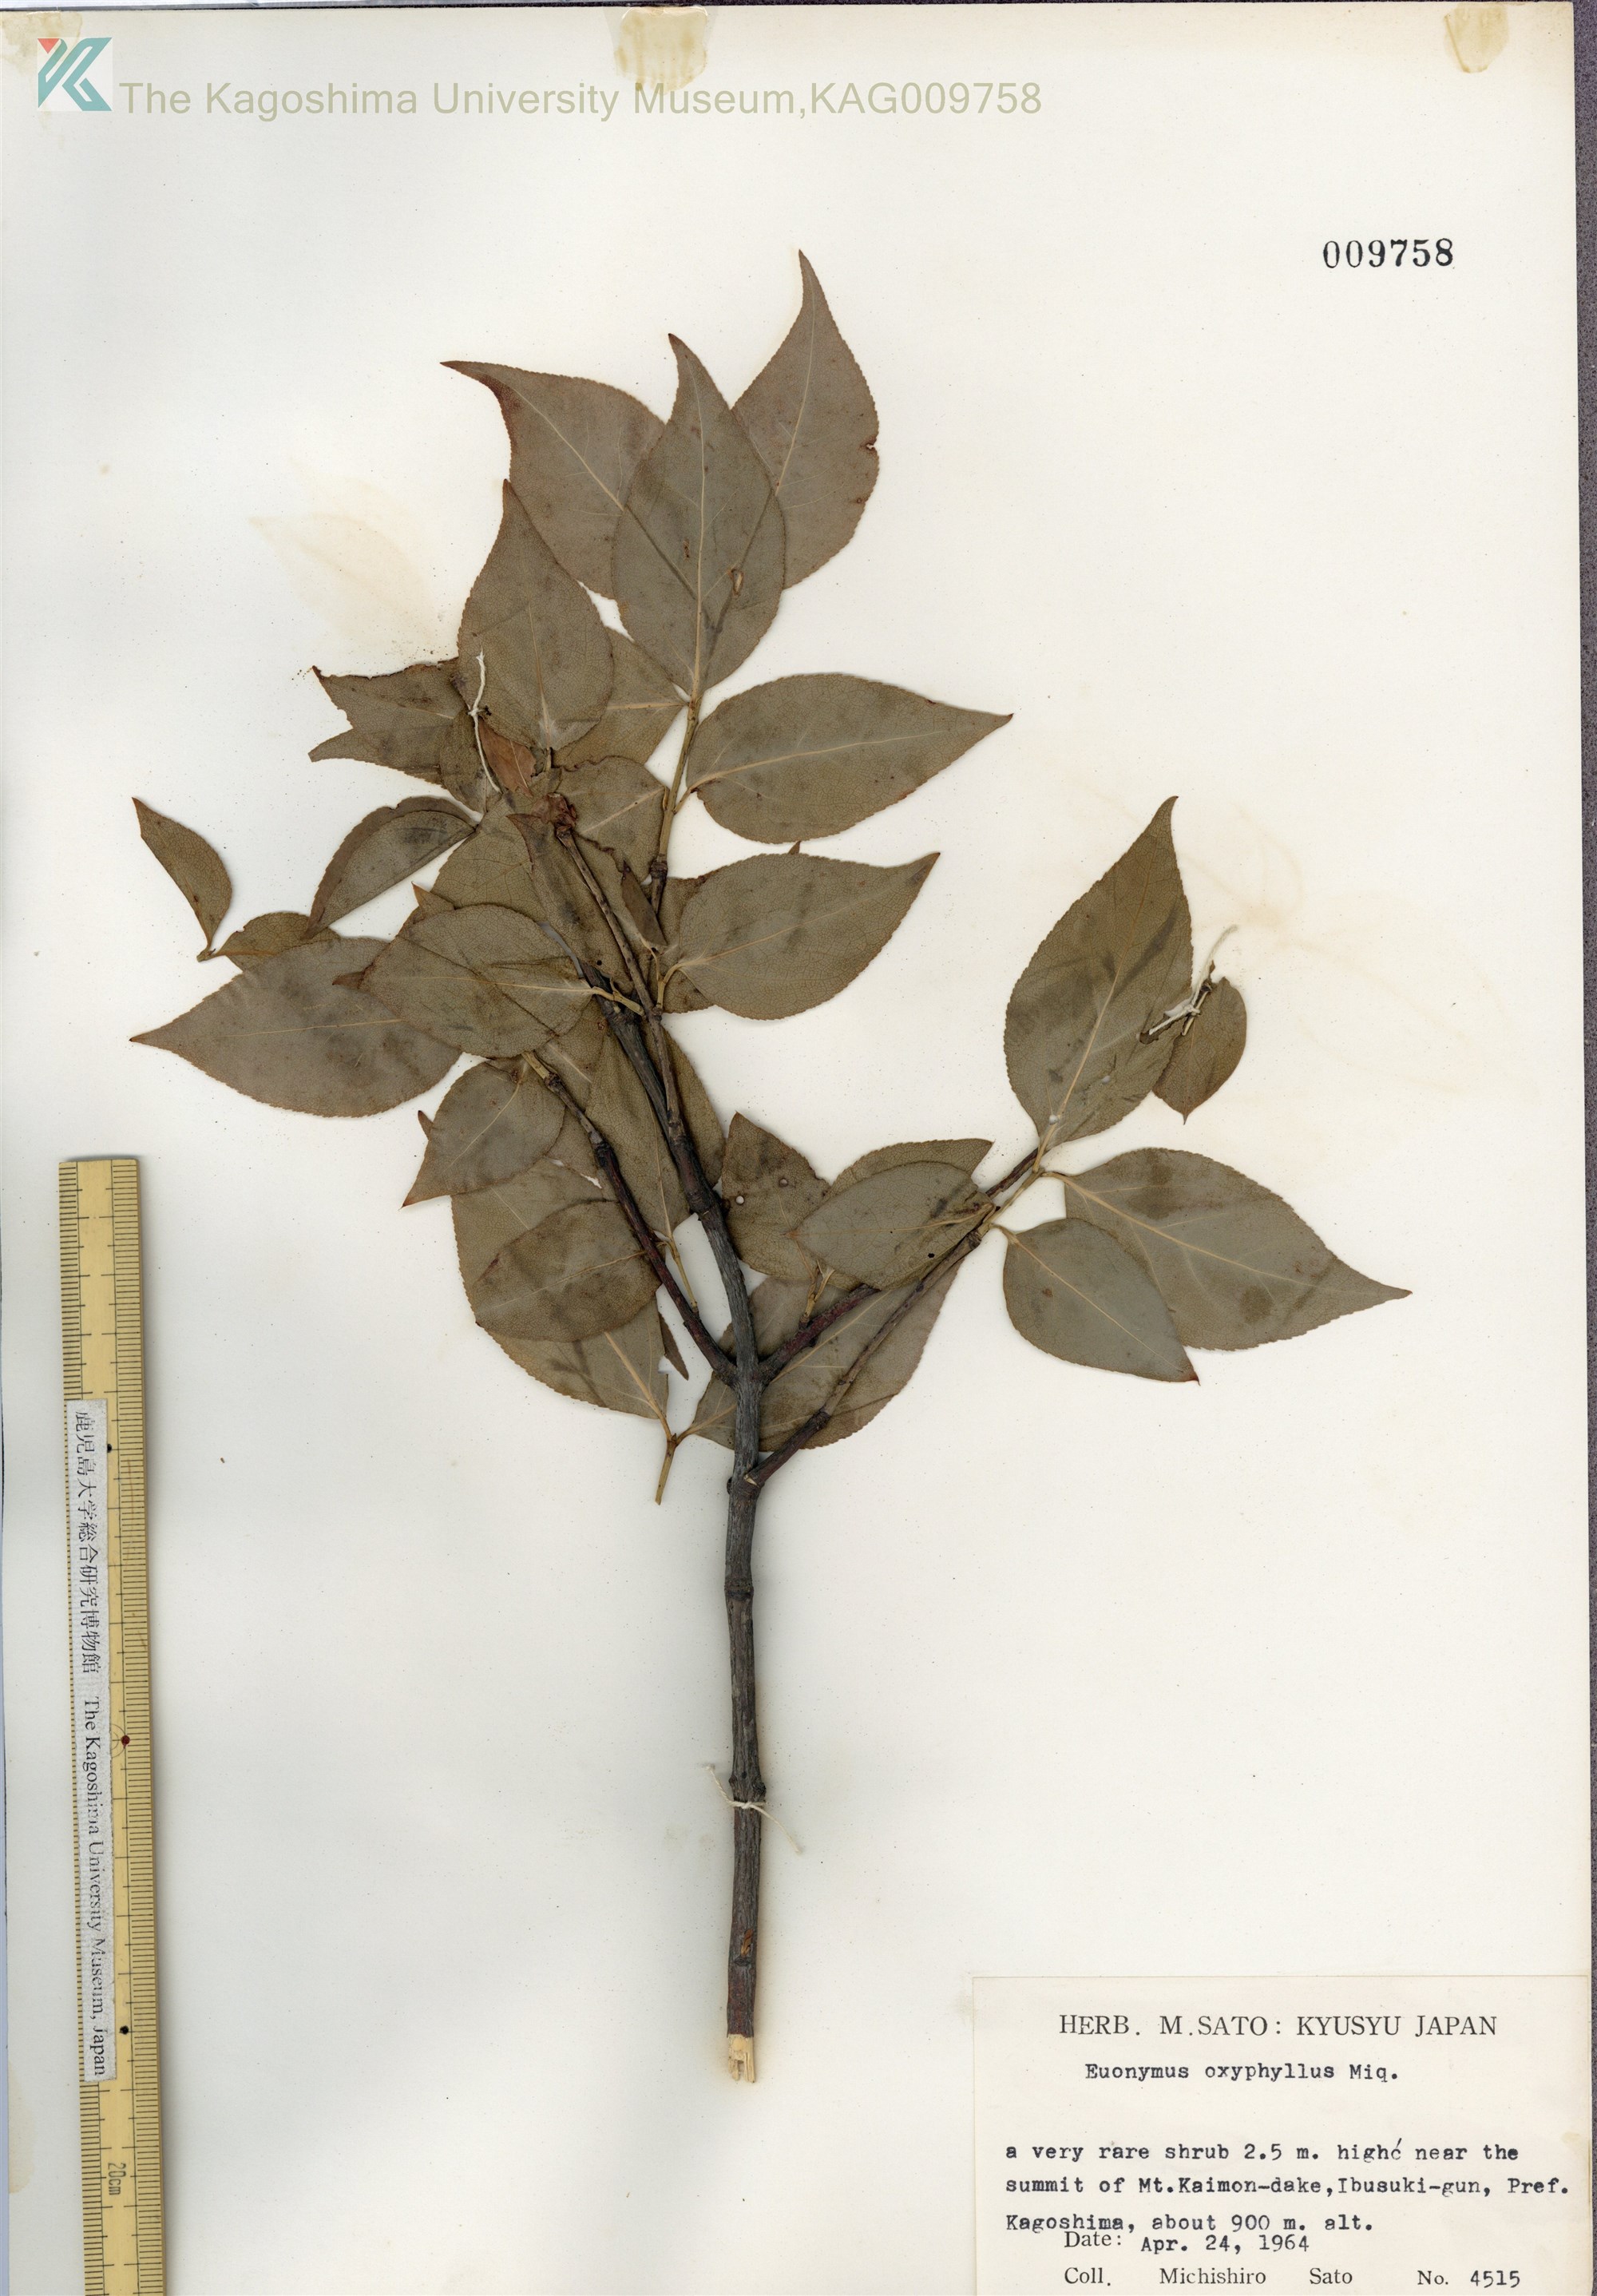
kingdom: Plantae
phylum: Tracheophyta
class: Magnoliopsida
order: Celastrales
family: Celastraceae
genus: Euonymus
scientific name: Euonymus oxyphyllus
